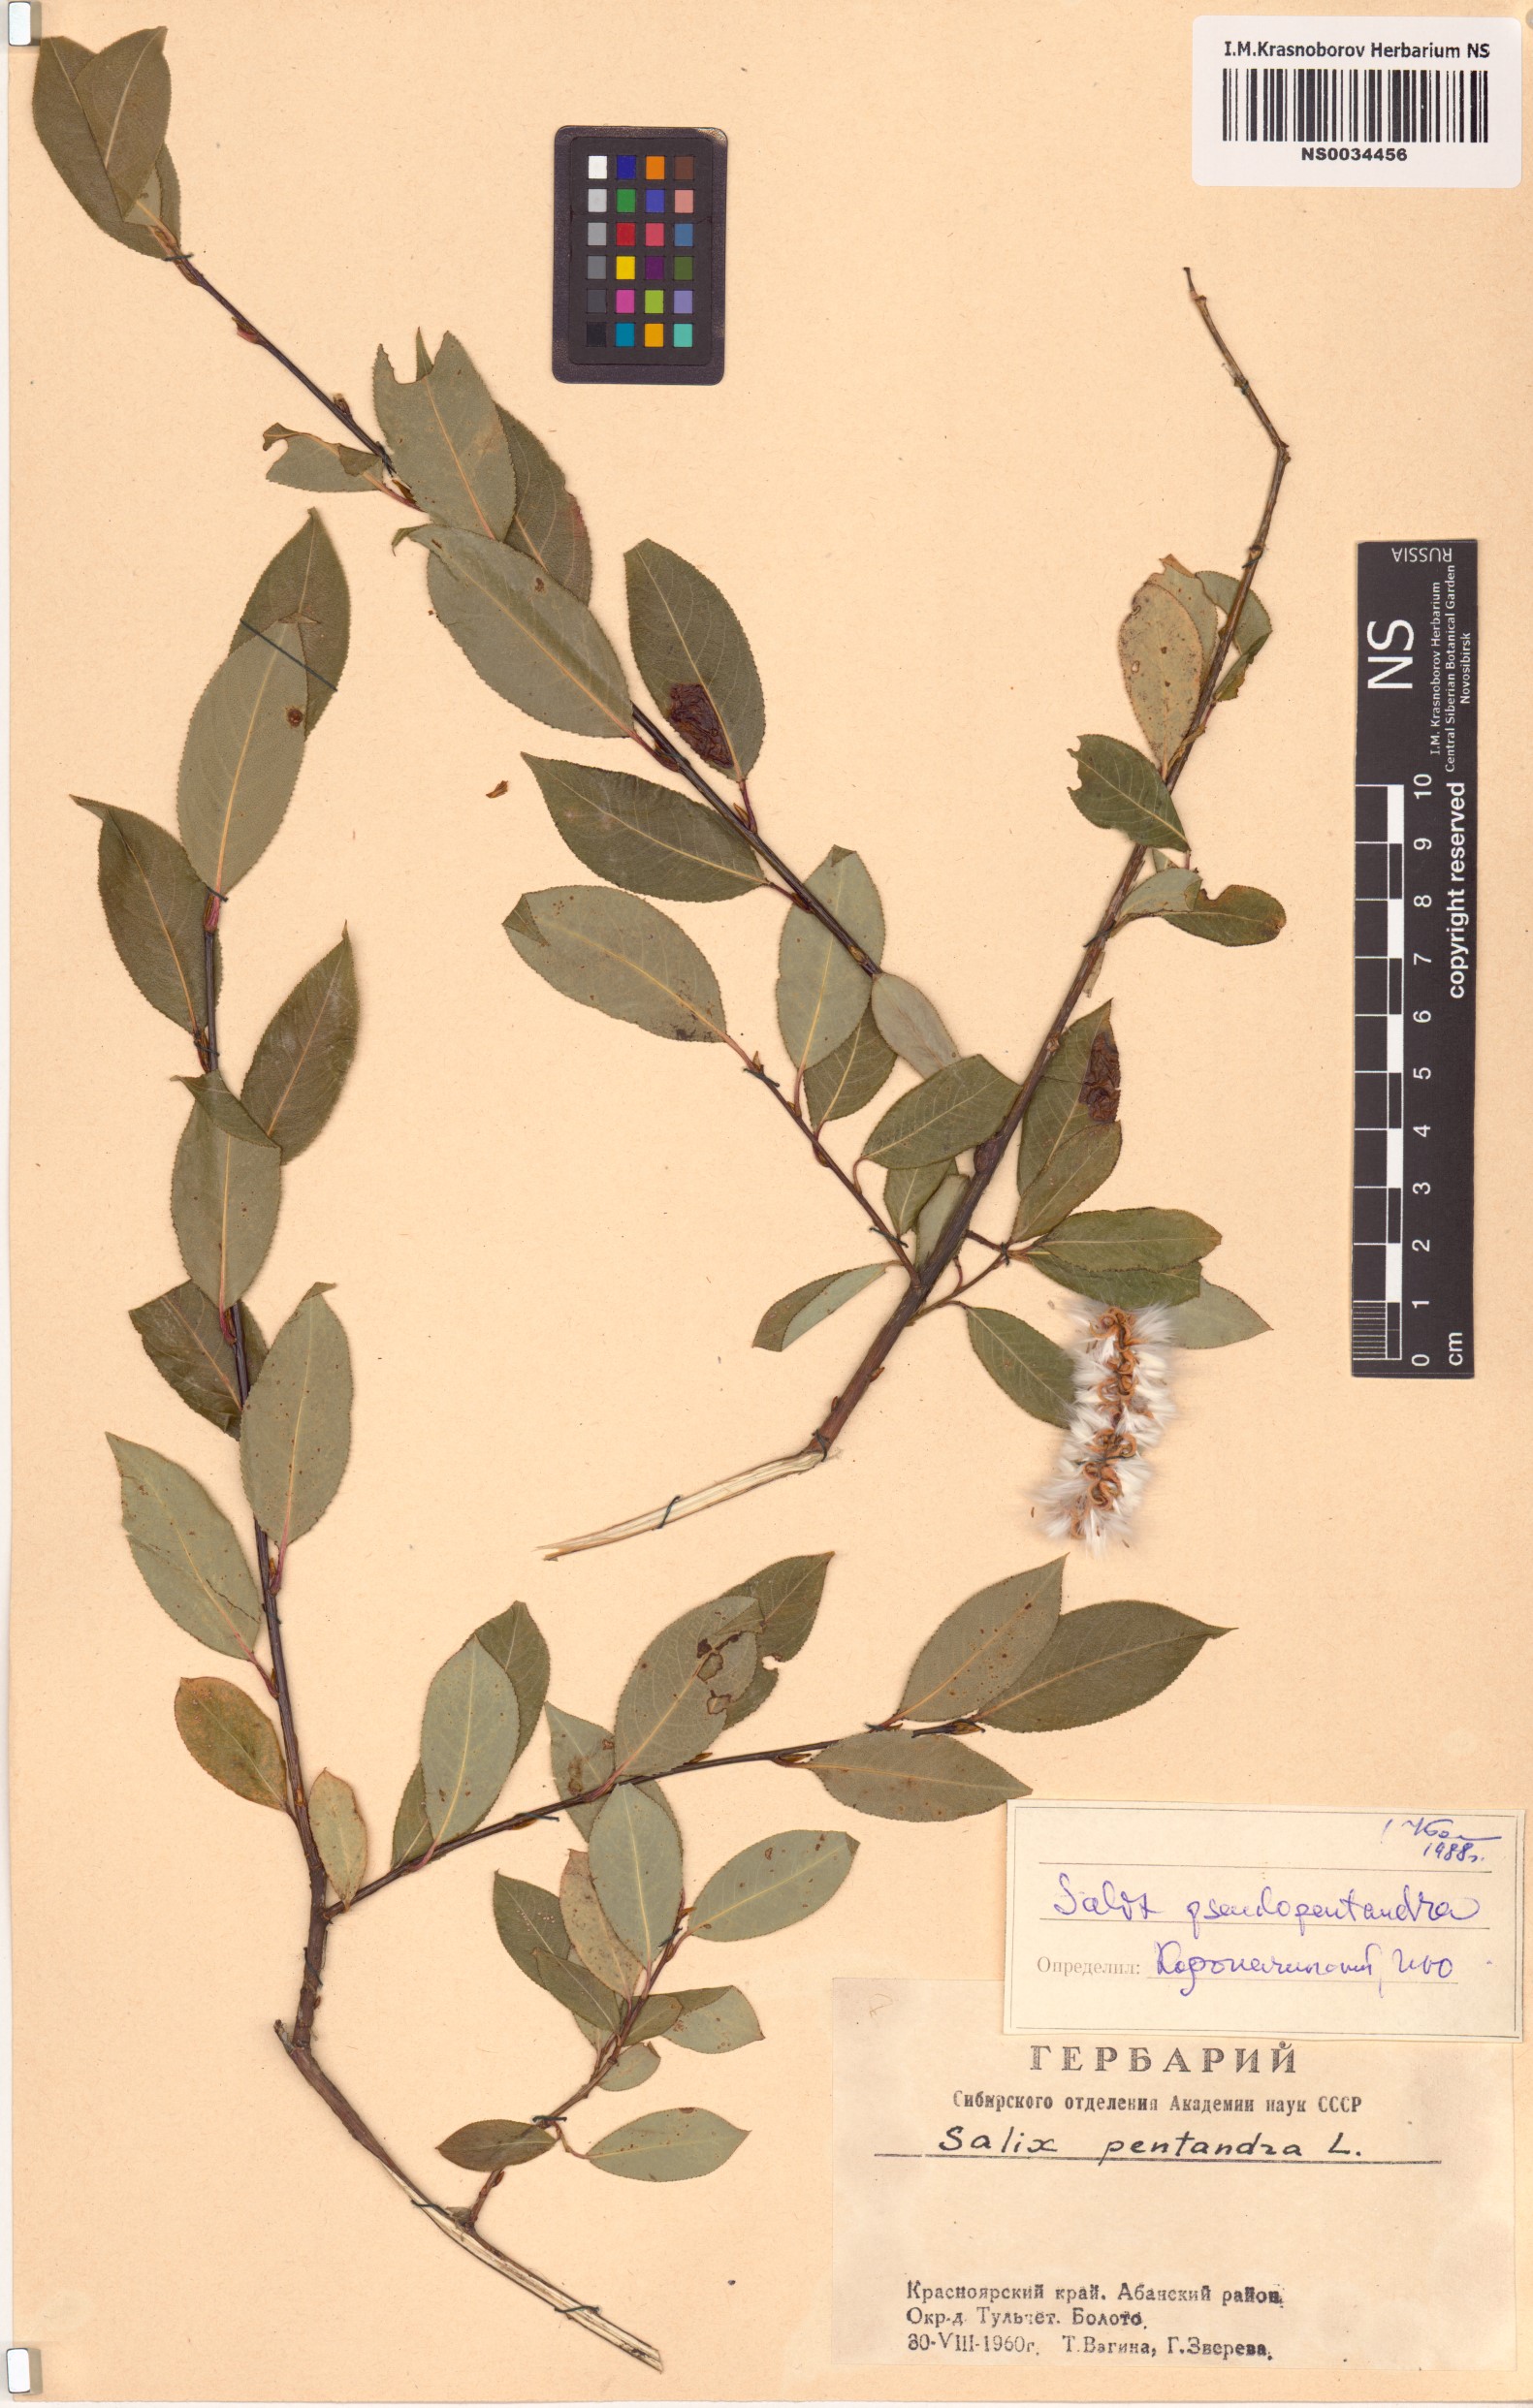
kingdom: Plantae
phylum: Tracheophyta
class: Magnoliopsida
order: Malpighiales
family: Salicaceae
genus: Salix
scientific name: Salix pseudopentandra
